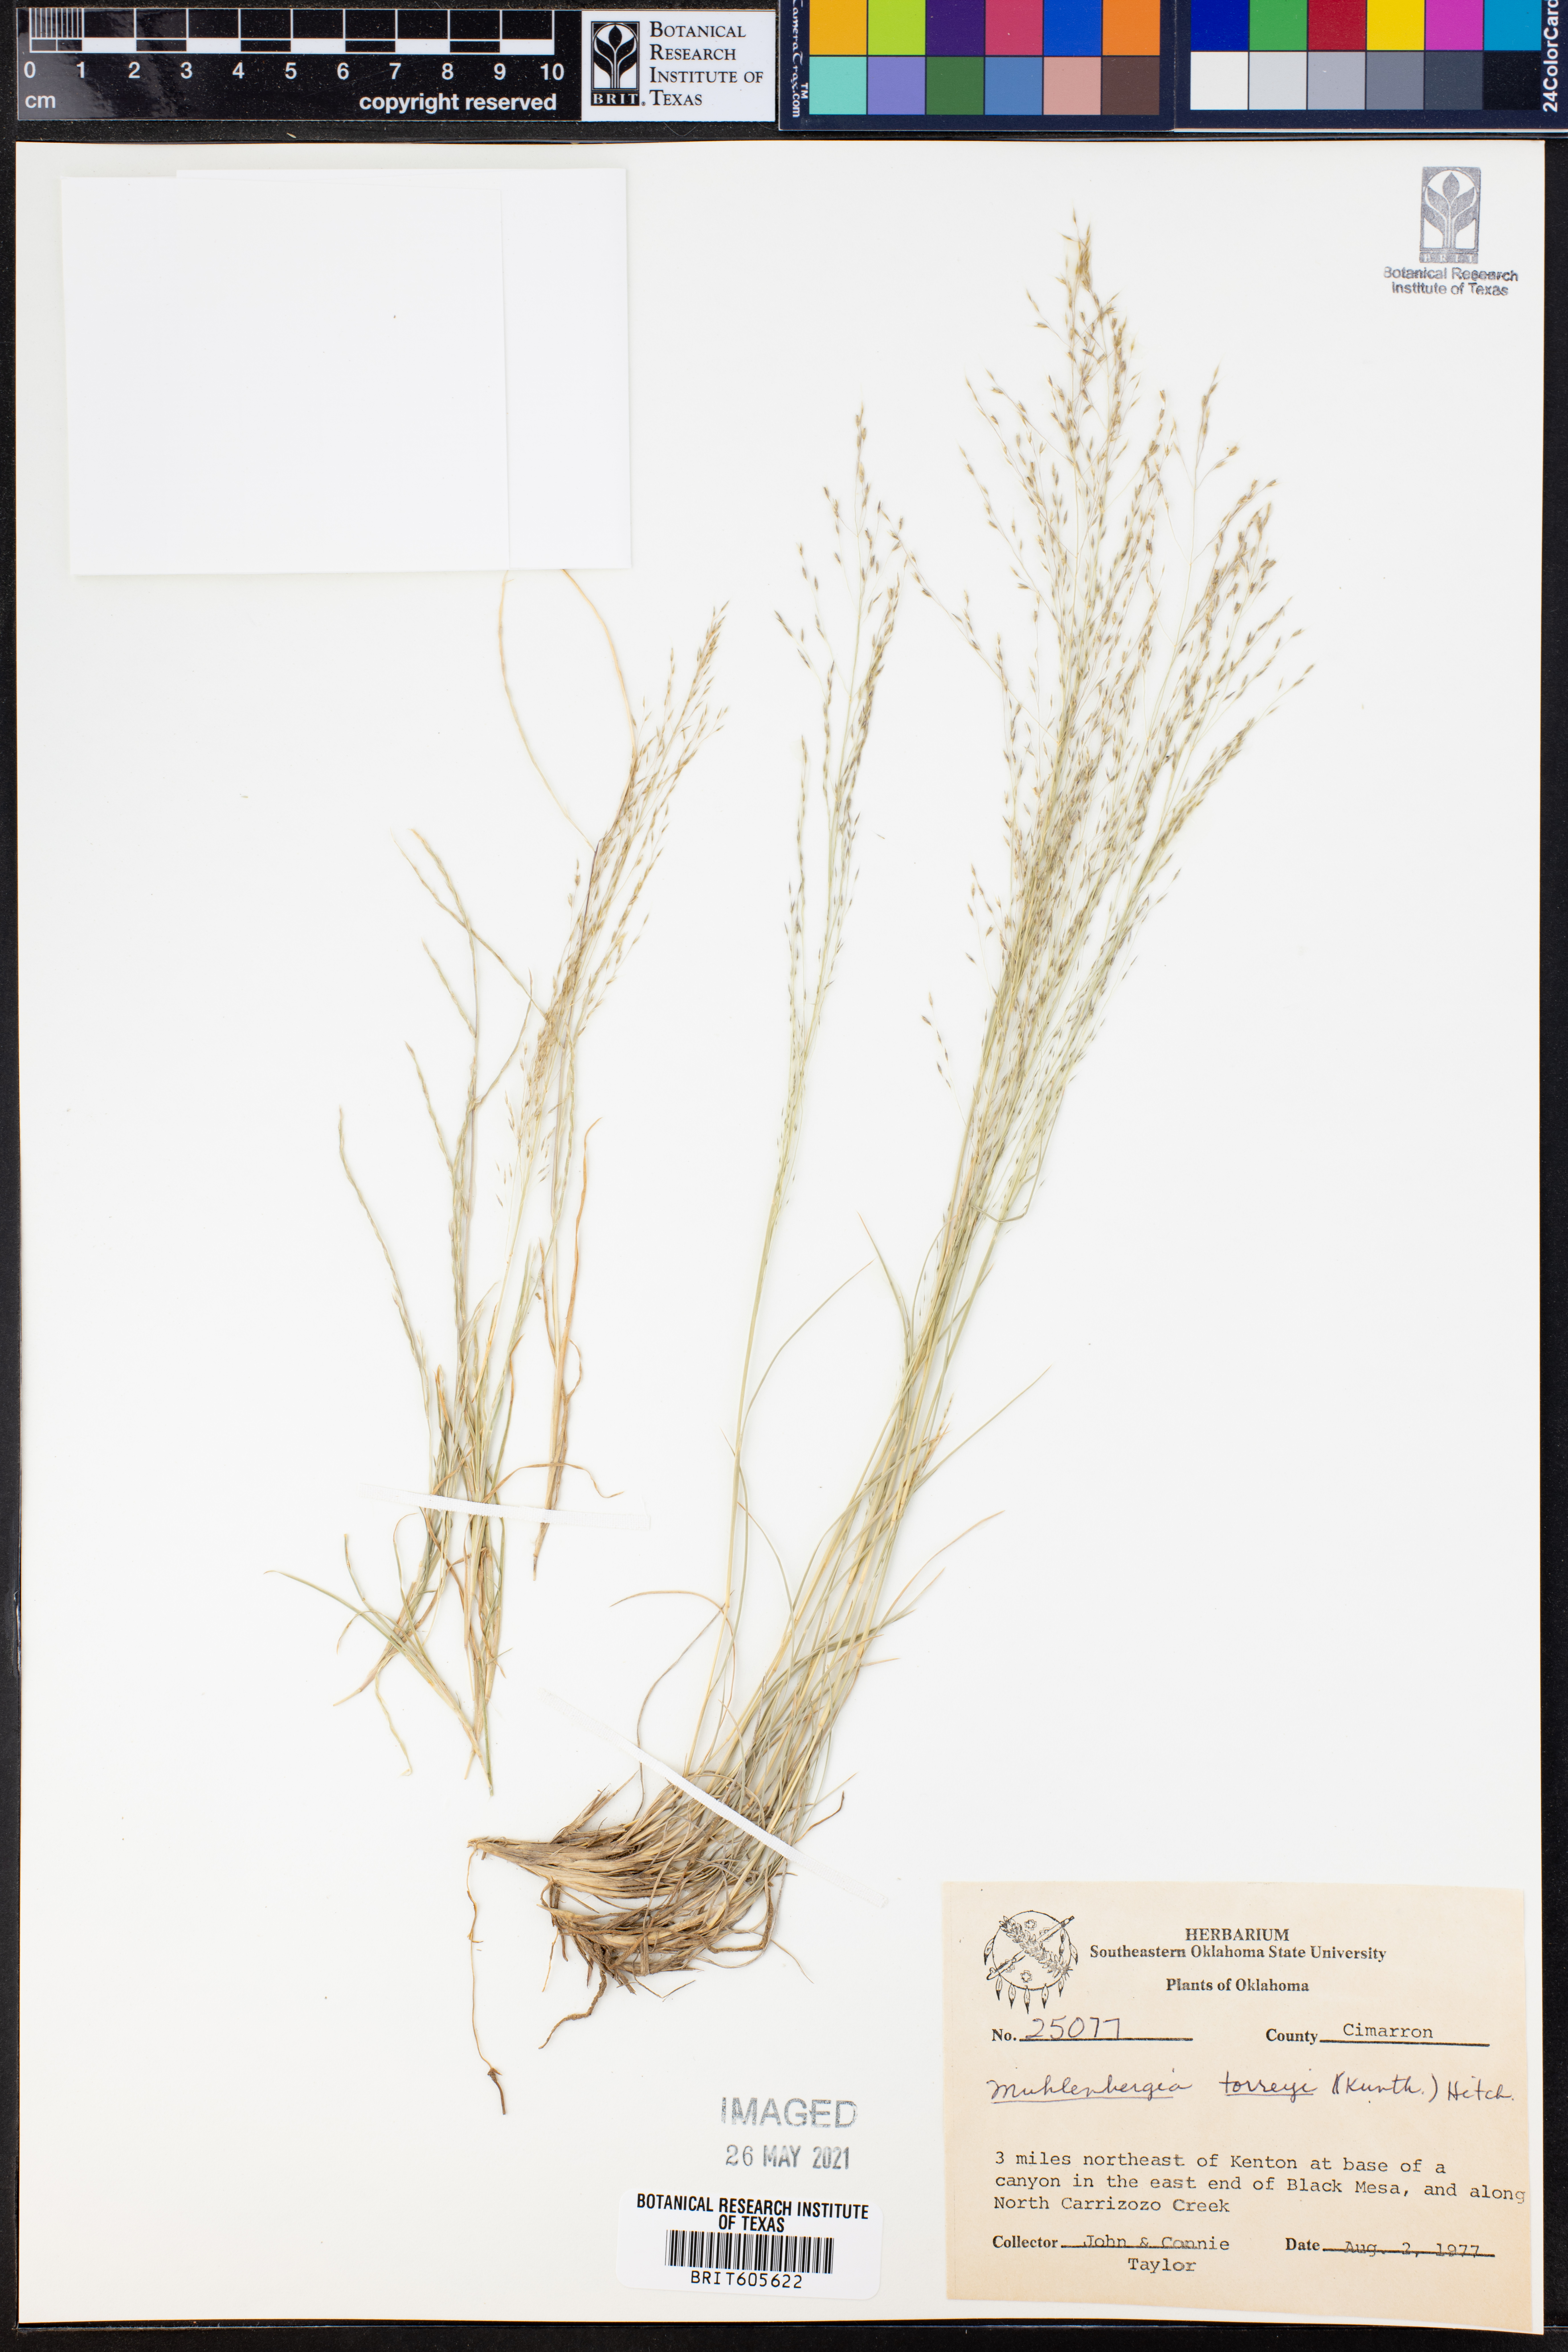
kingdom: Plantae
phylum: Tracheophyta
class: Liliopsida
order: Poales
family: Poaceae
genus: Muhlenbergia
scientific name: Muhlenbergia torreyi
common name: Ring grass
